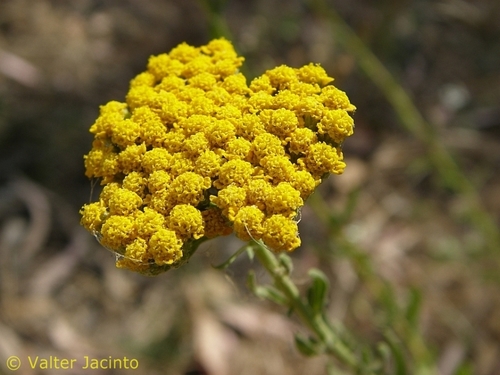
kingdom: Plantae
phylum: Tracheophyta
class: Magnoliopsida
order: Asterales
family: Asteraceae
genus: Achillea
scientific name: Achillea ageratum
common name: Sweet-nancy
